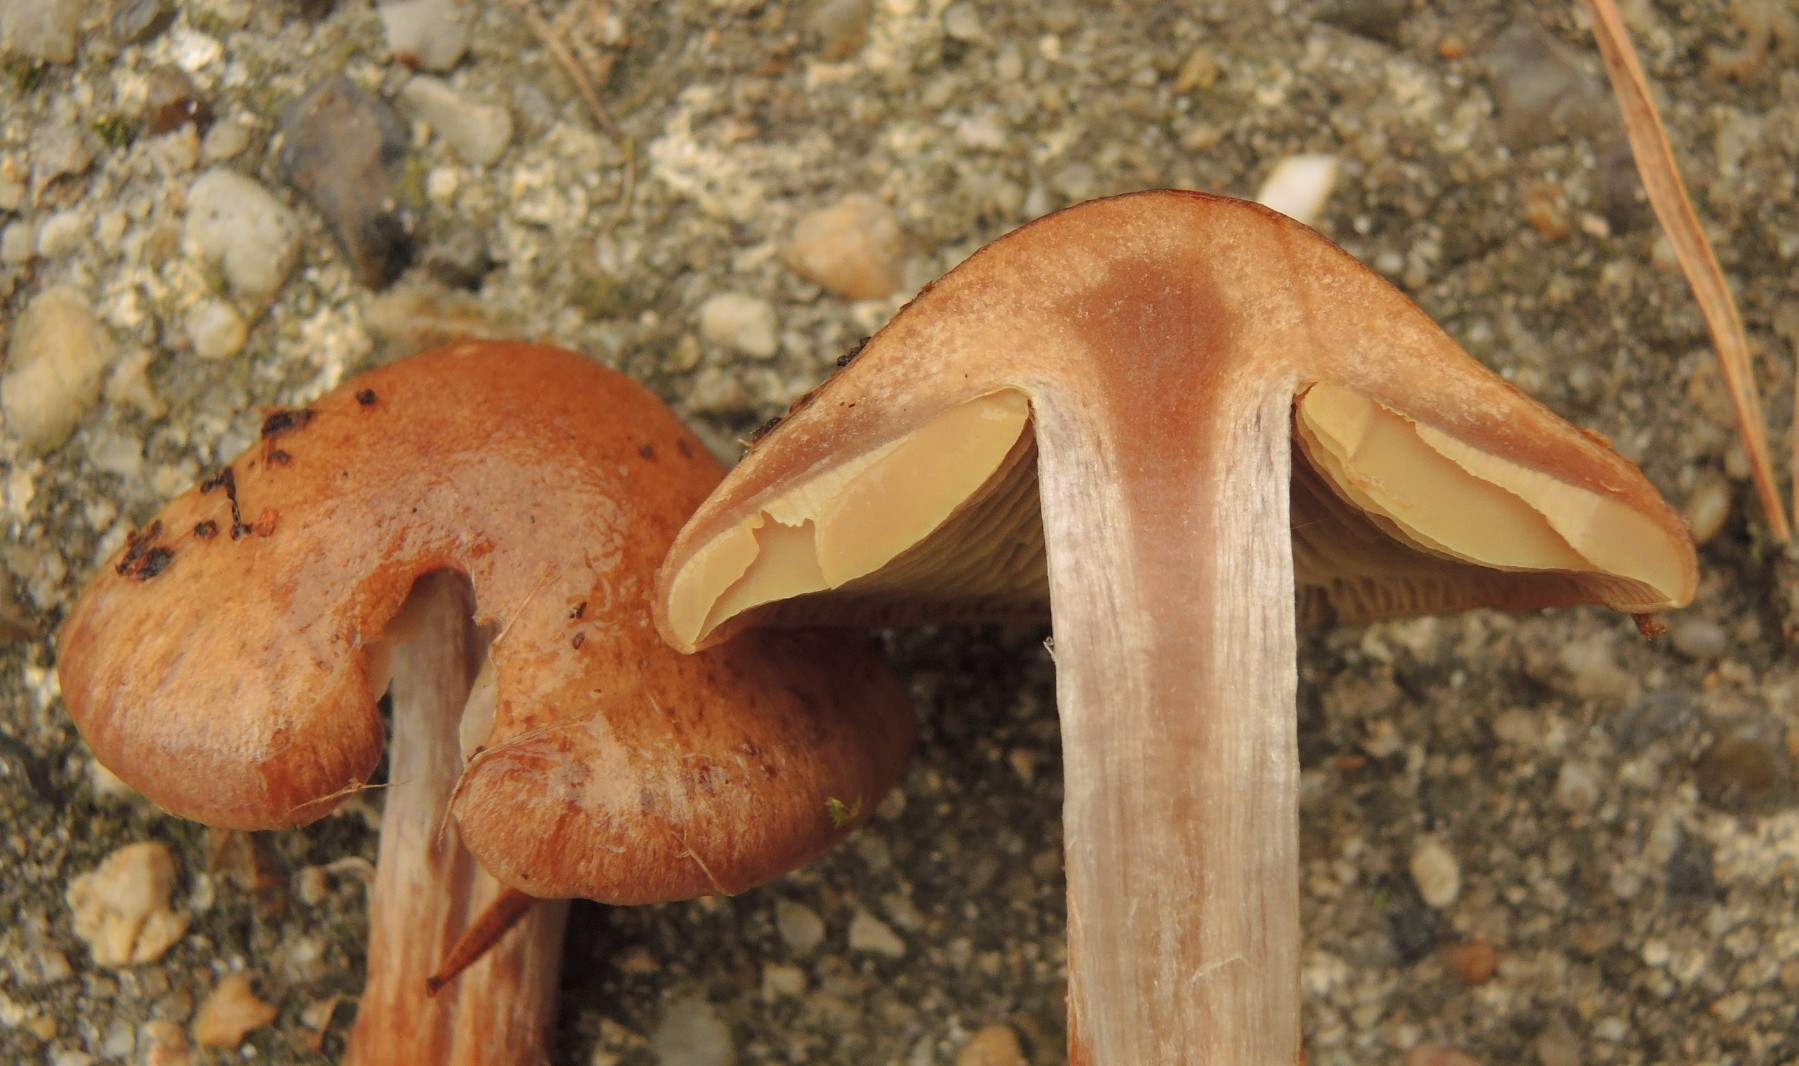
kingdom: Fungi
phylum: Basidiomycota
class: Agaricomycetes
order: Agaricales
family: Cortinariaceae
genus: Thaxterogaster
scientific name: Thaxterogaster scaurus
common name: sump-slørhat
